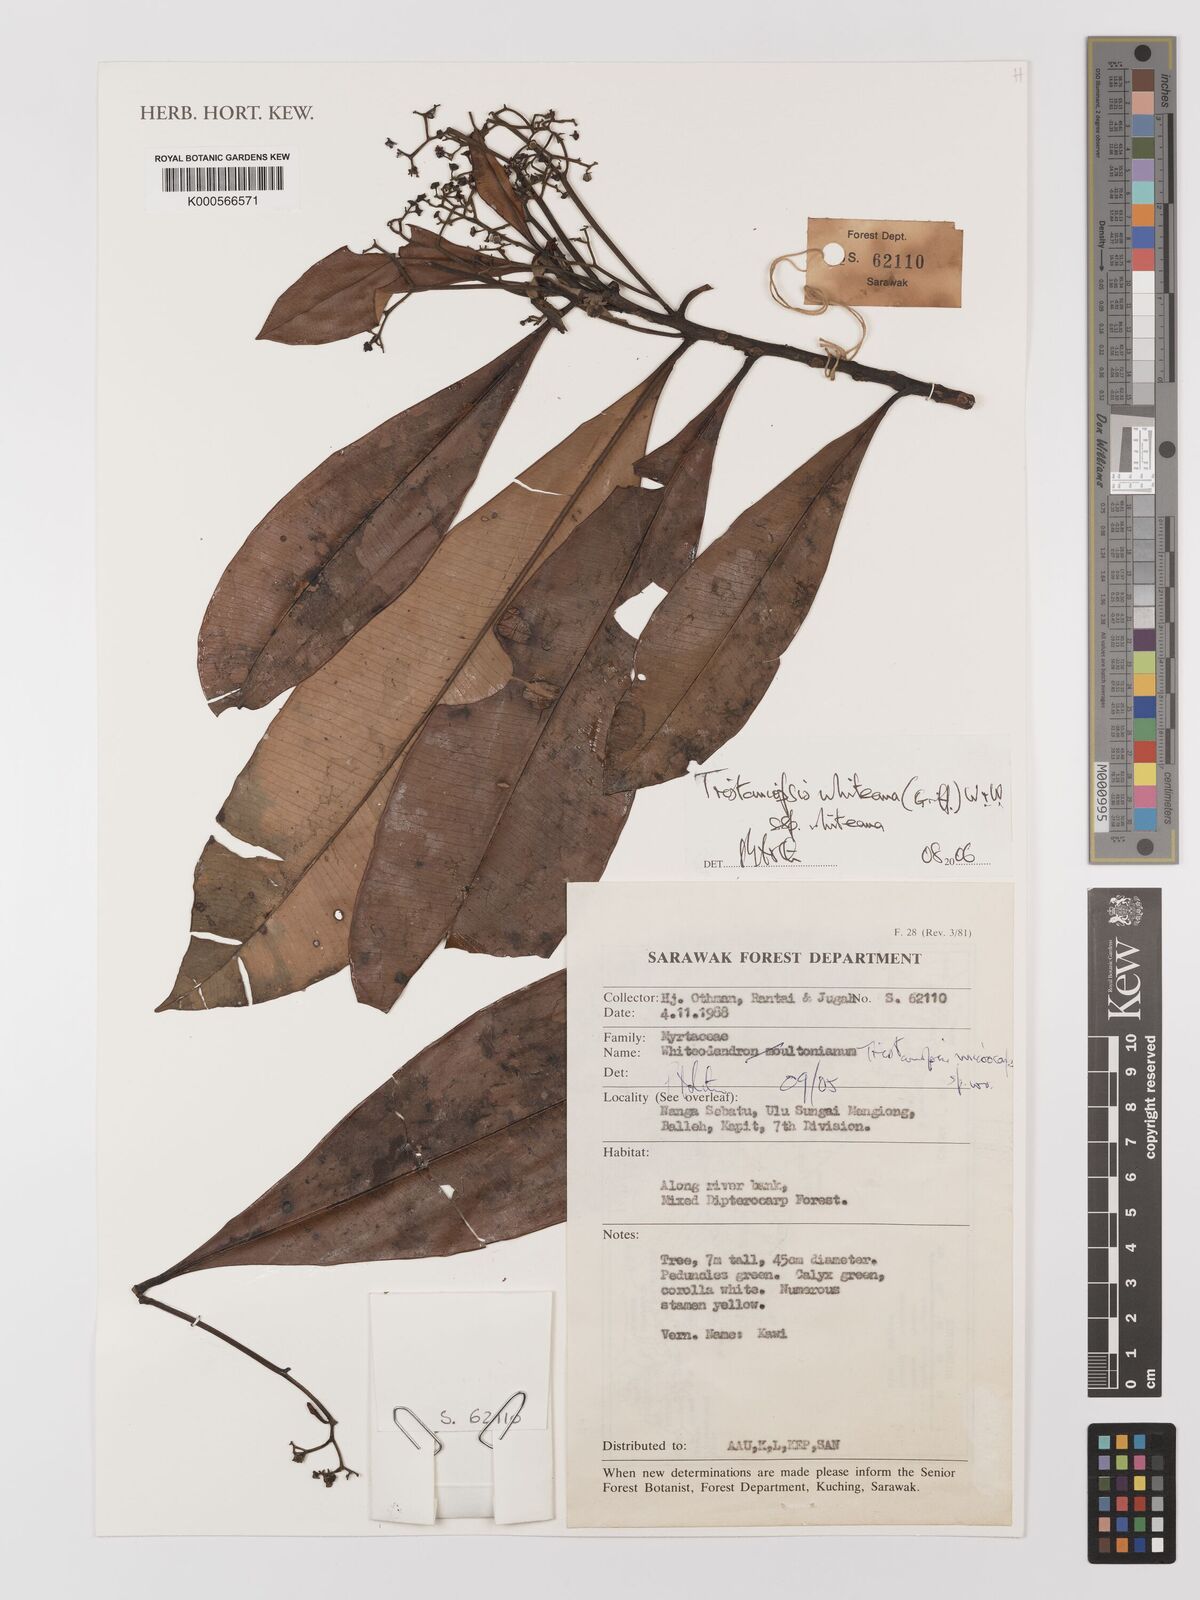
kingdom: Plantae
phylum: Tracheophyta
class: Magnoliopsida
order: Myrtales
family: Myrtaceae
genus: Tristaniopsis
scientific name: Tristaniopsis whiteana
